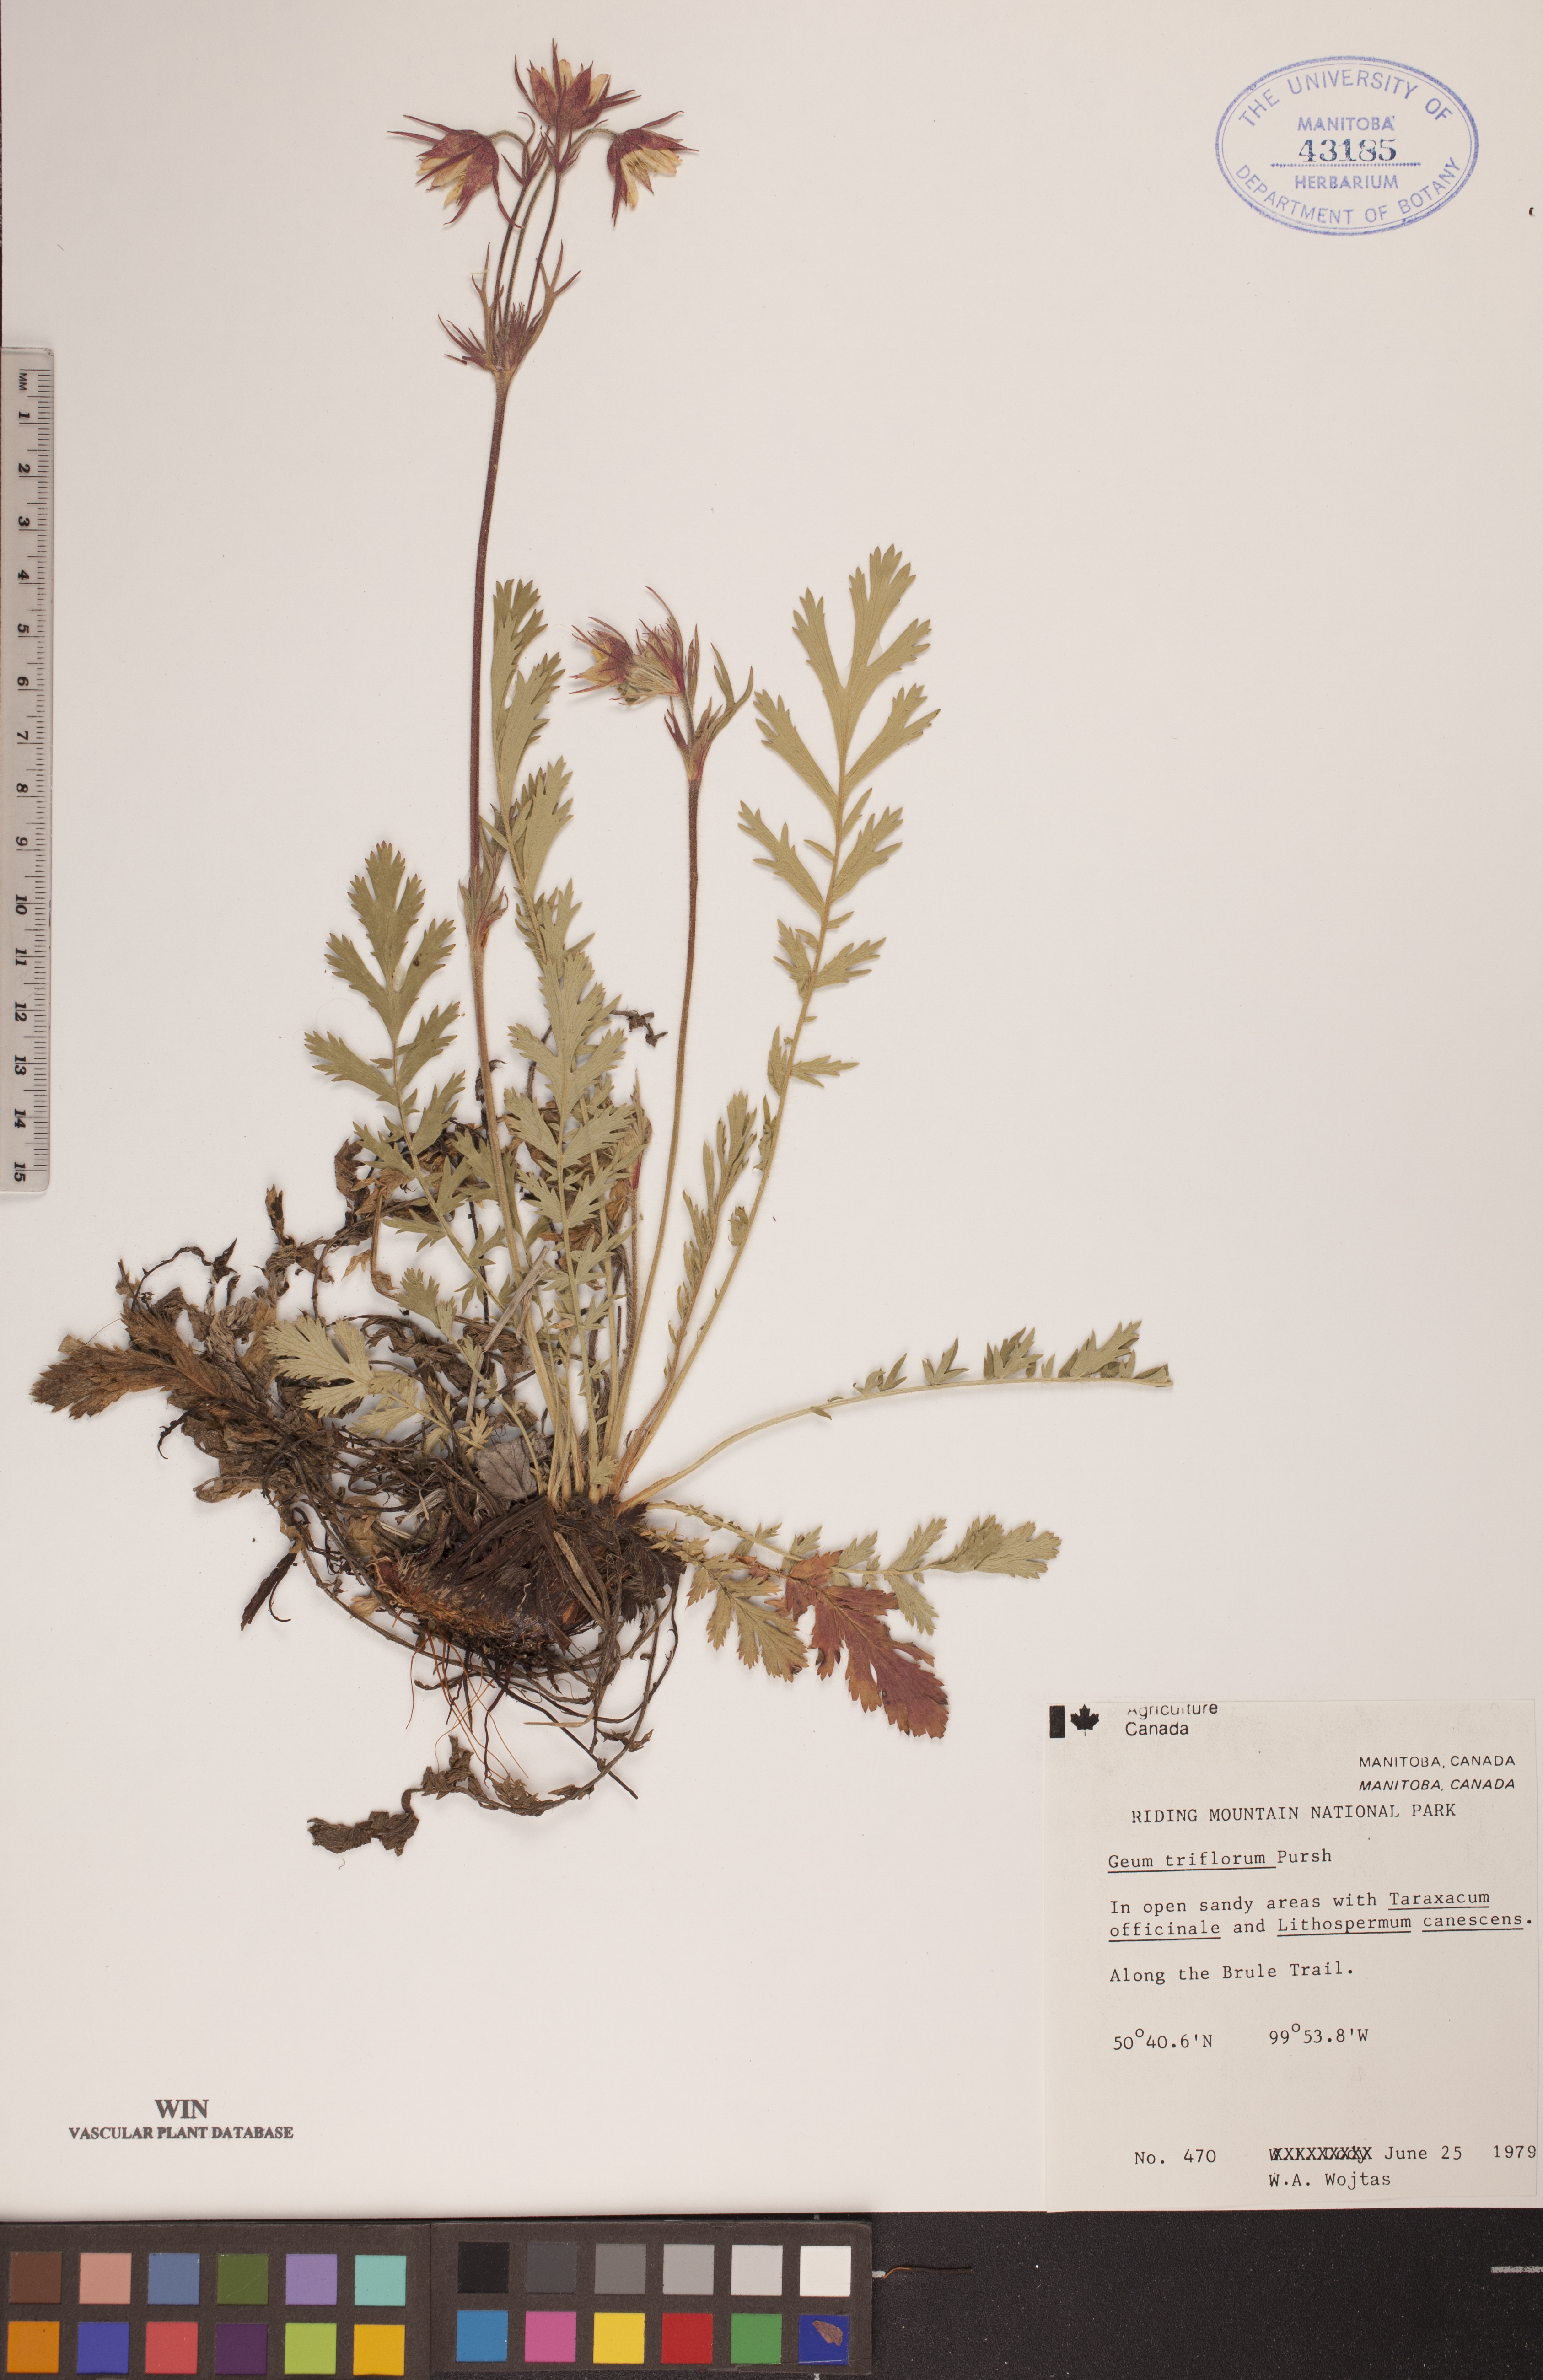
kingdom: Plantae
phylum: Tracheophyta
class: Magnoliopsida
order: Rosales
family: Rosaceae
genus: Geum
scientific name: Geum triflorum
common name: Old man's whiskers
